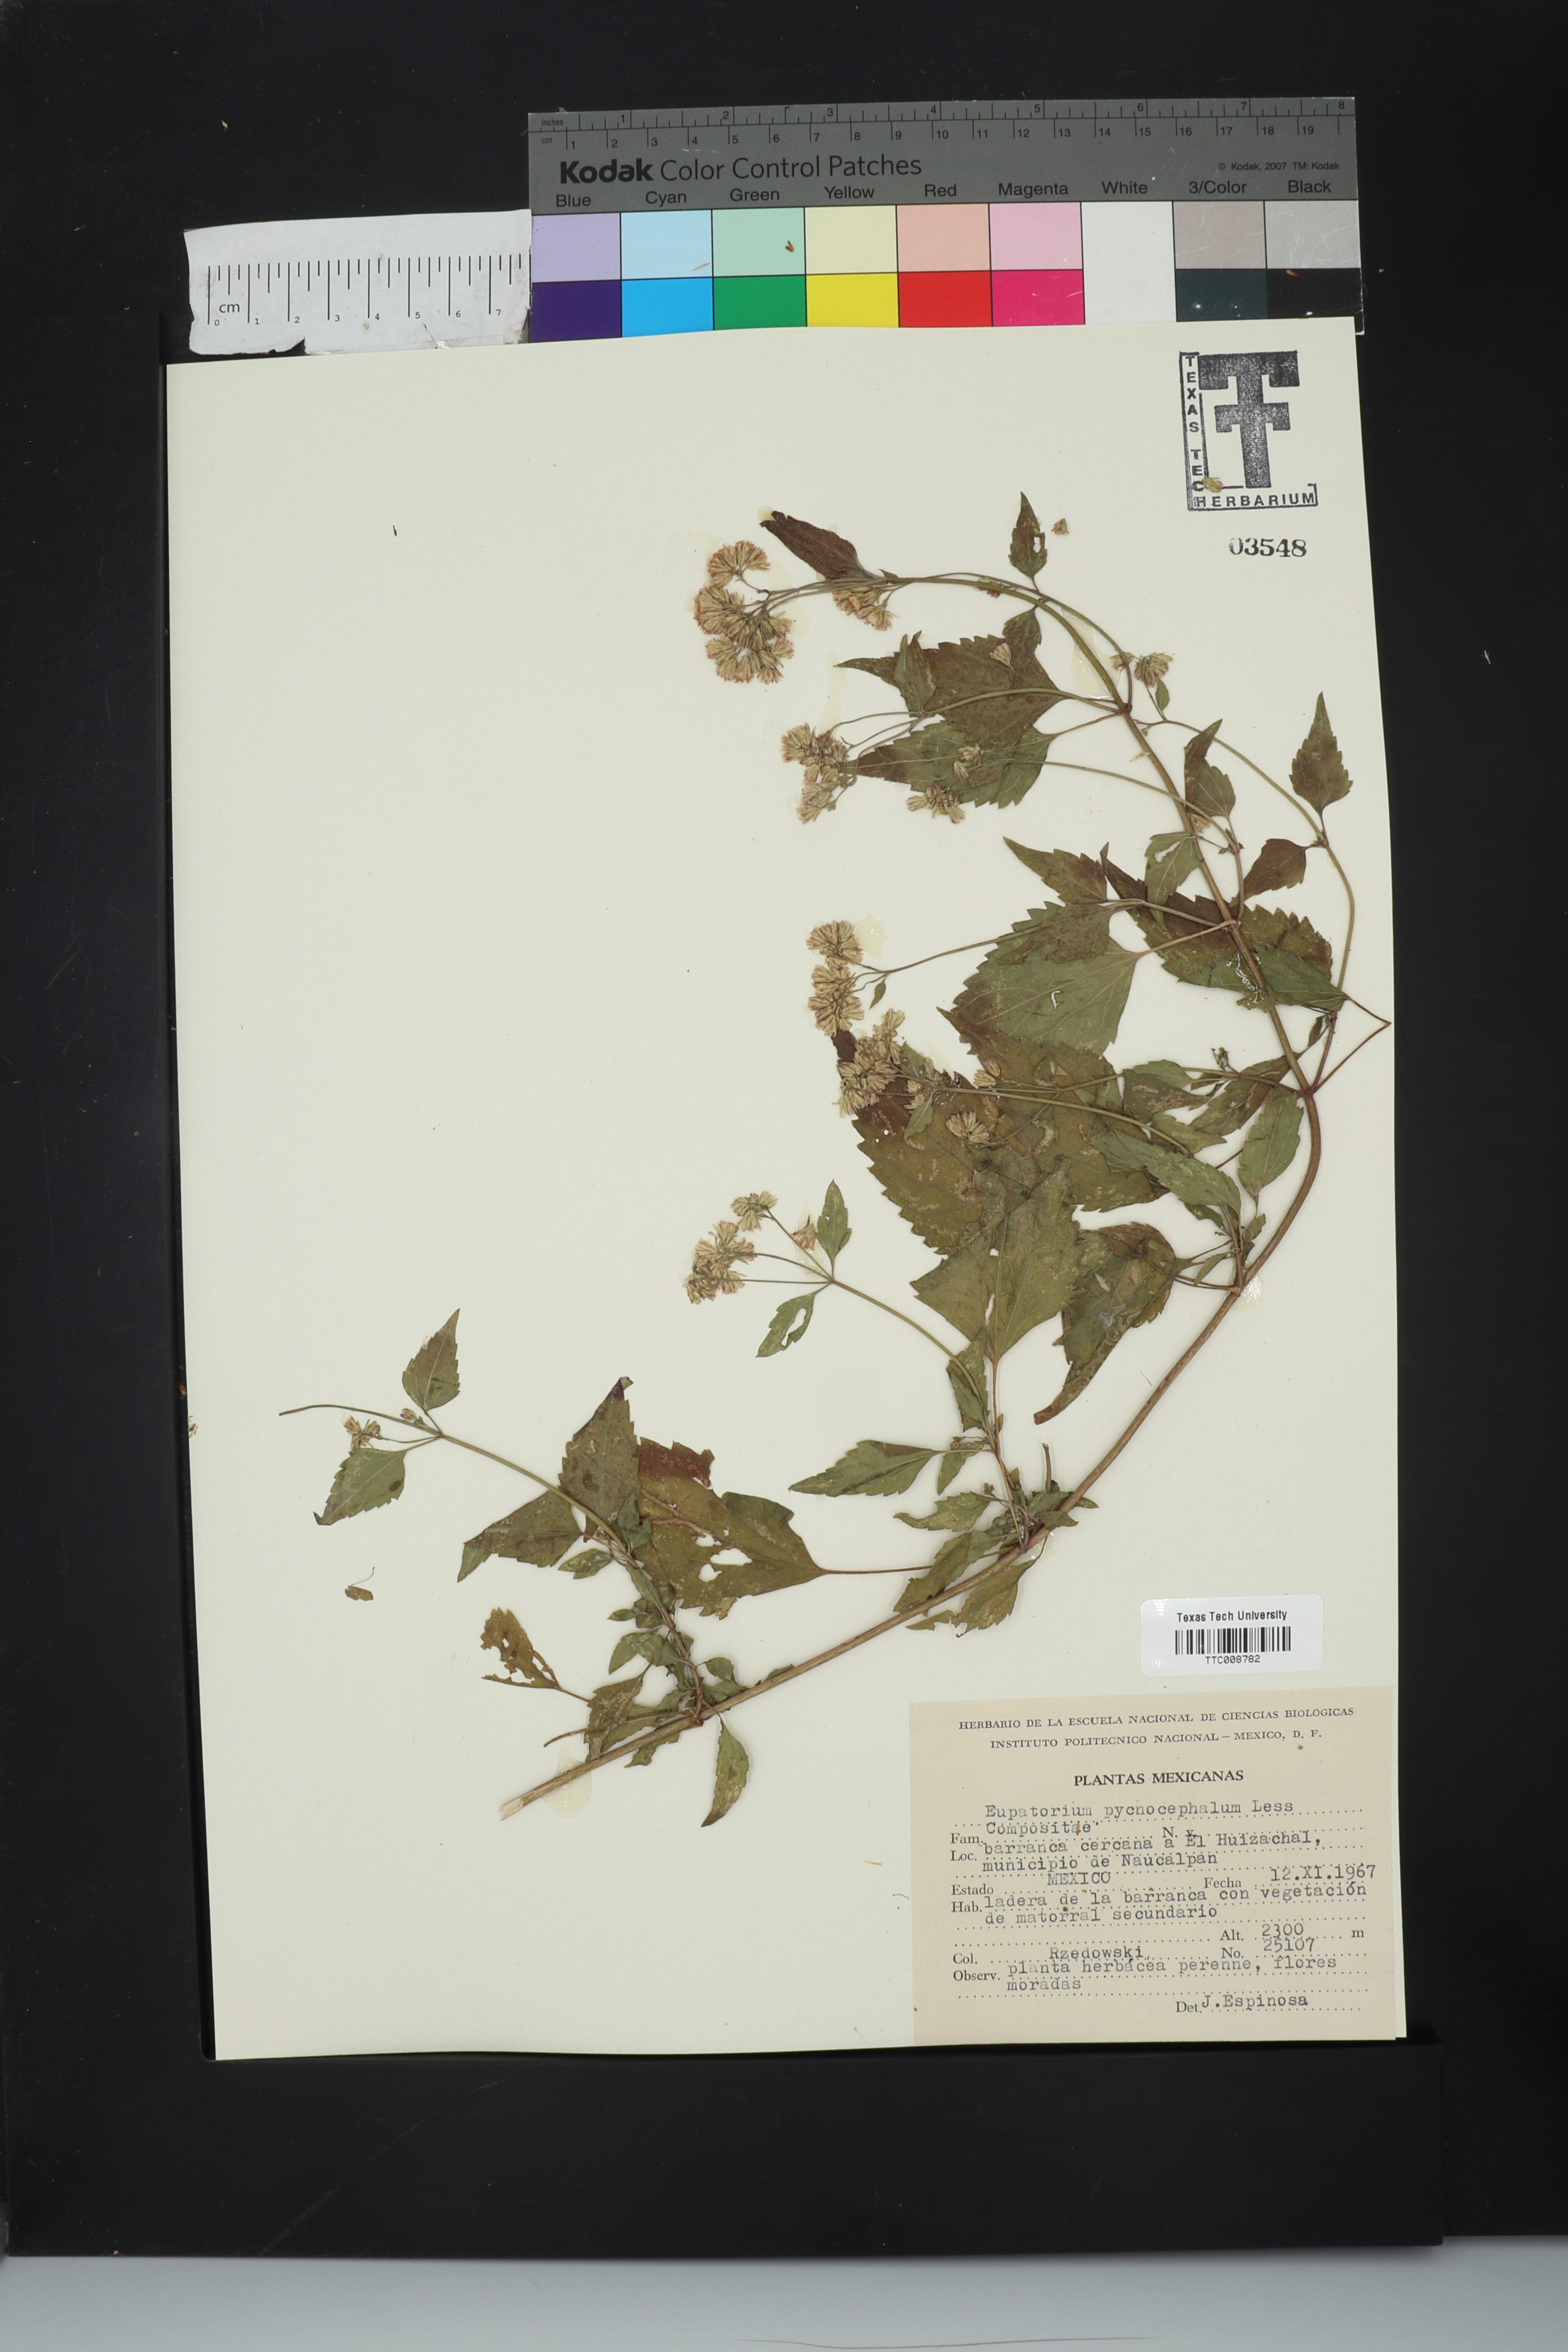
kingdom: Plantae
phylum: Tracheophyta
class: Magnoliopsida
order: Asterales
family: Asteraceae
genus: Fleischmannia
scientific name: Fleischmannia pycnocephala
